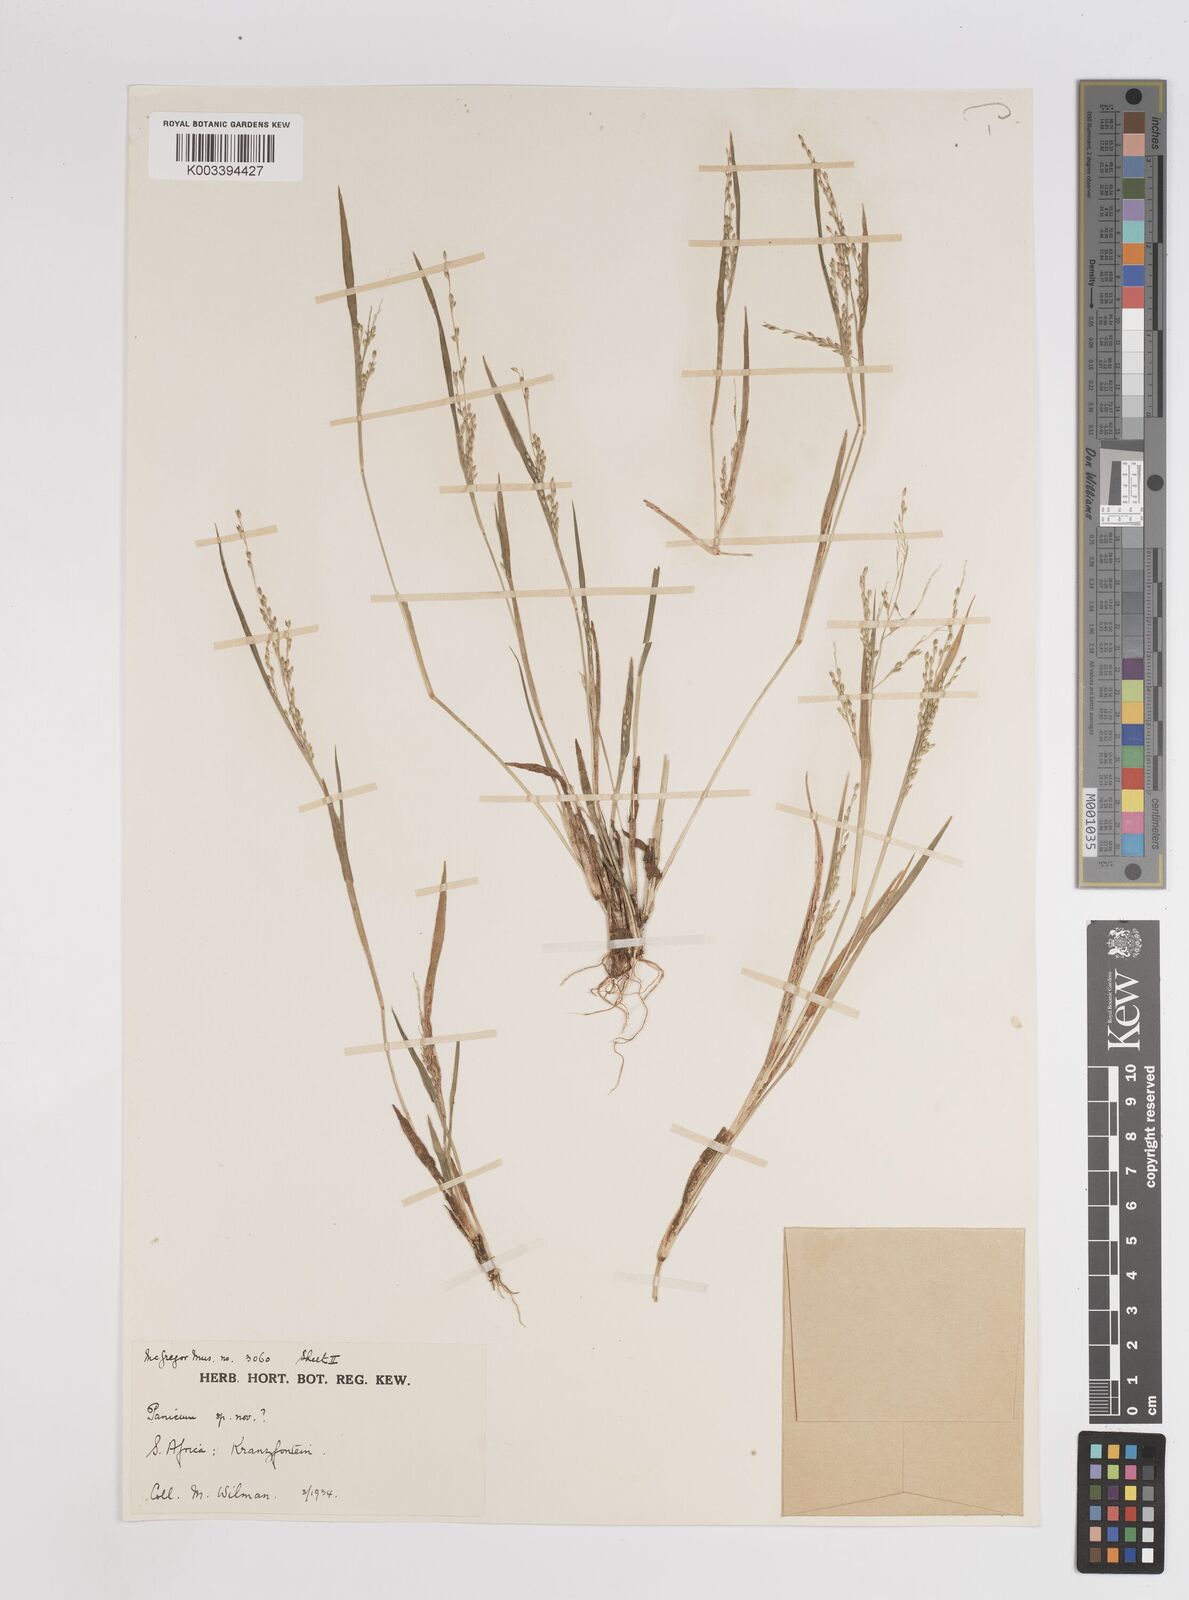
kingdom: Plantae
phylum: Tracheophyta
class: Liliopsida
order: Poales
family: Poaceae
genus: Panicum
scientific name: Panicum
